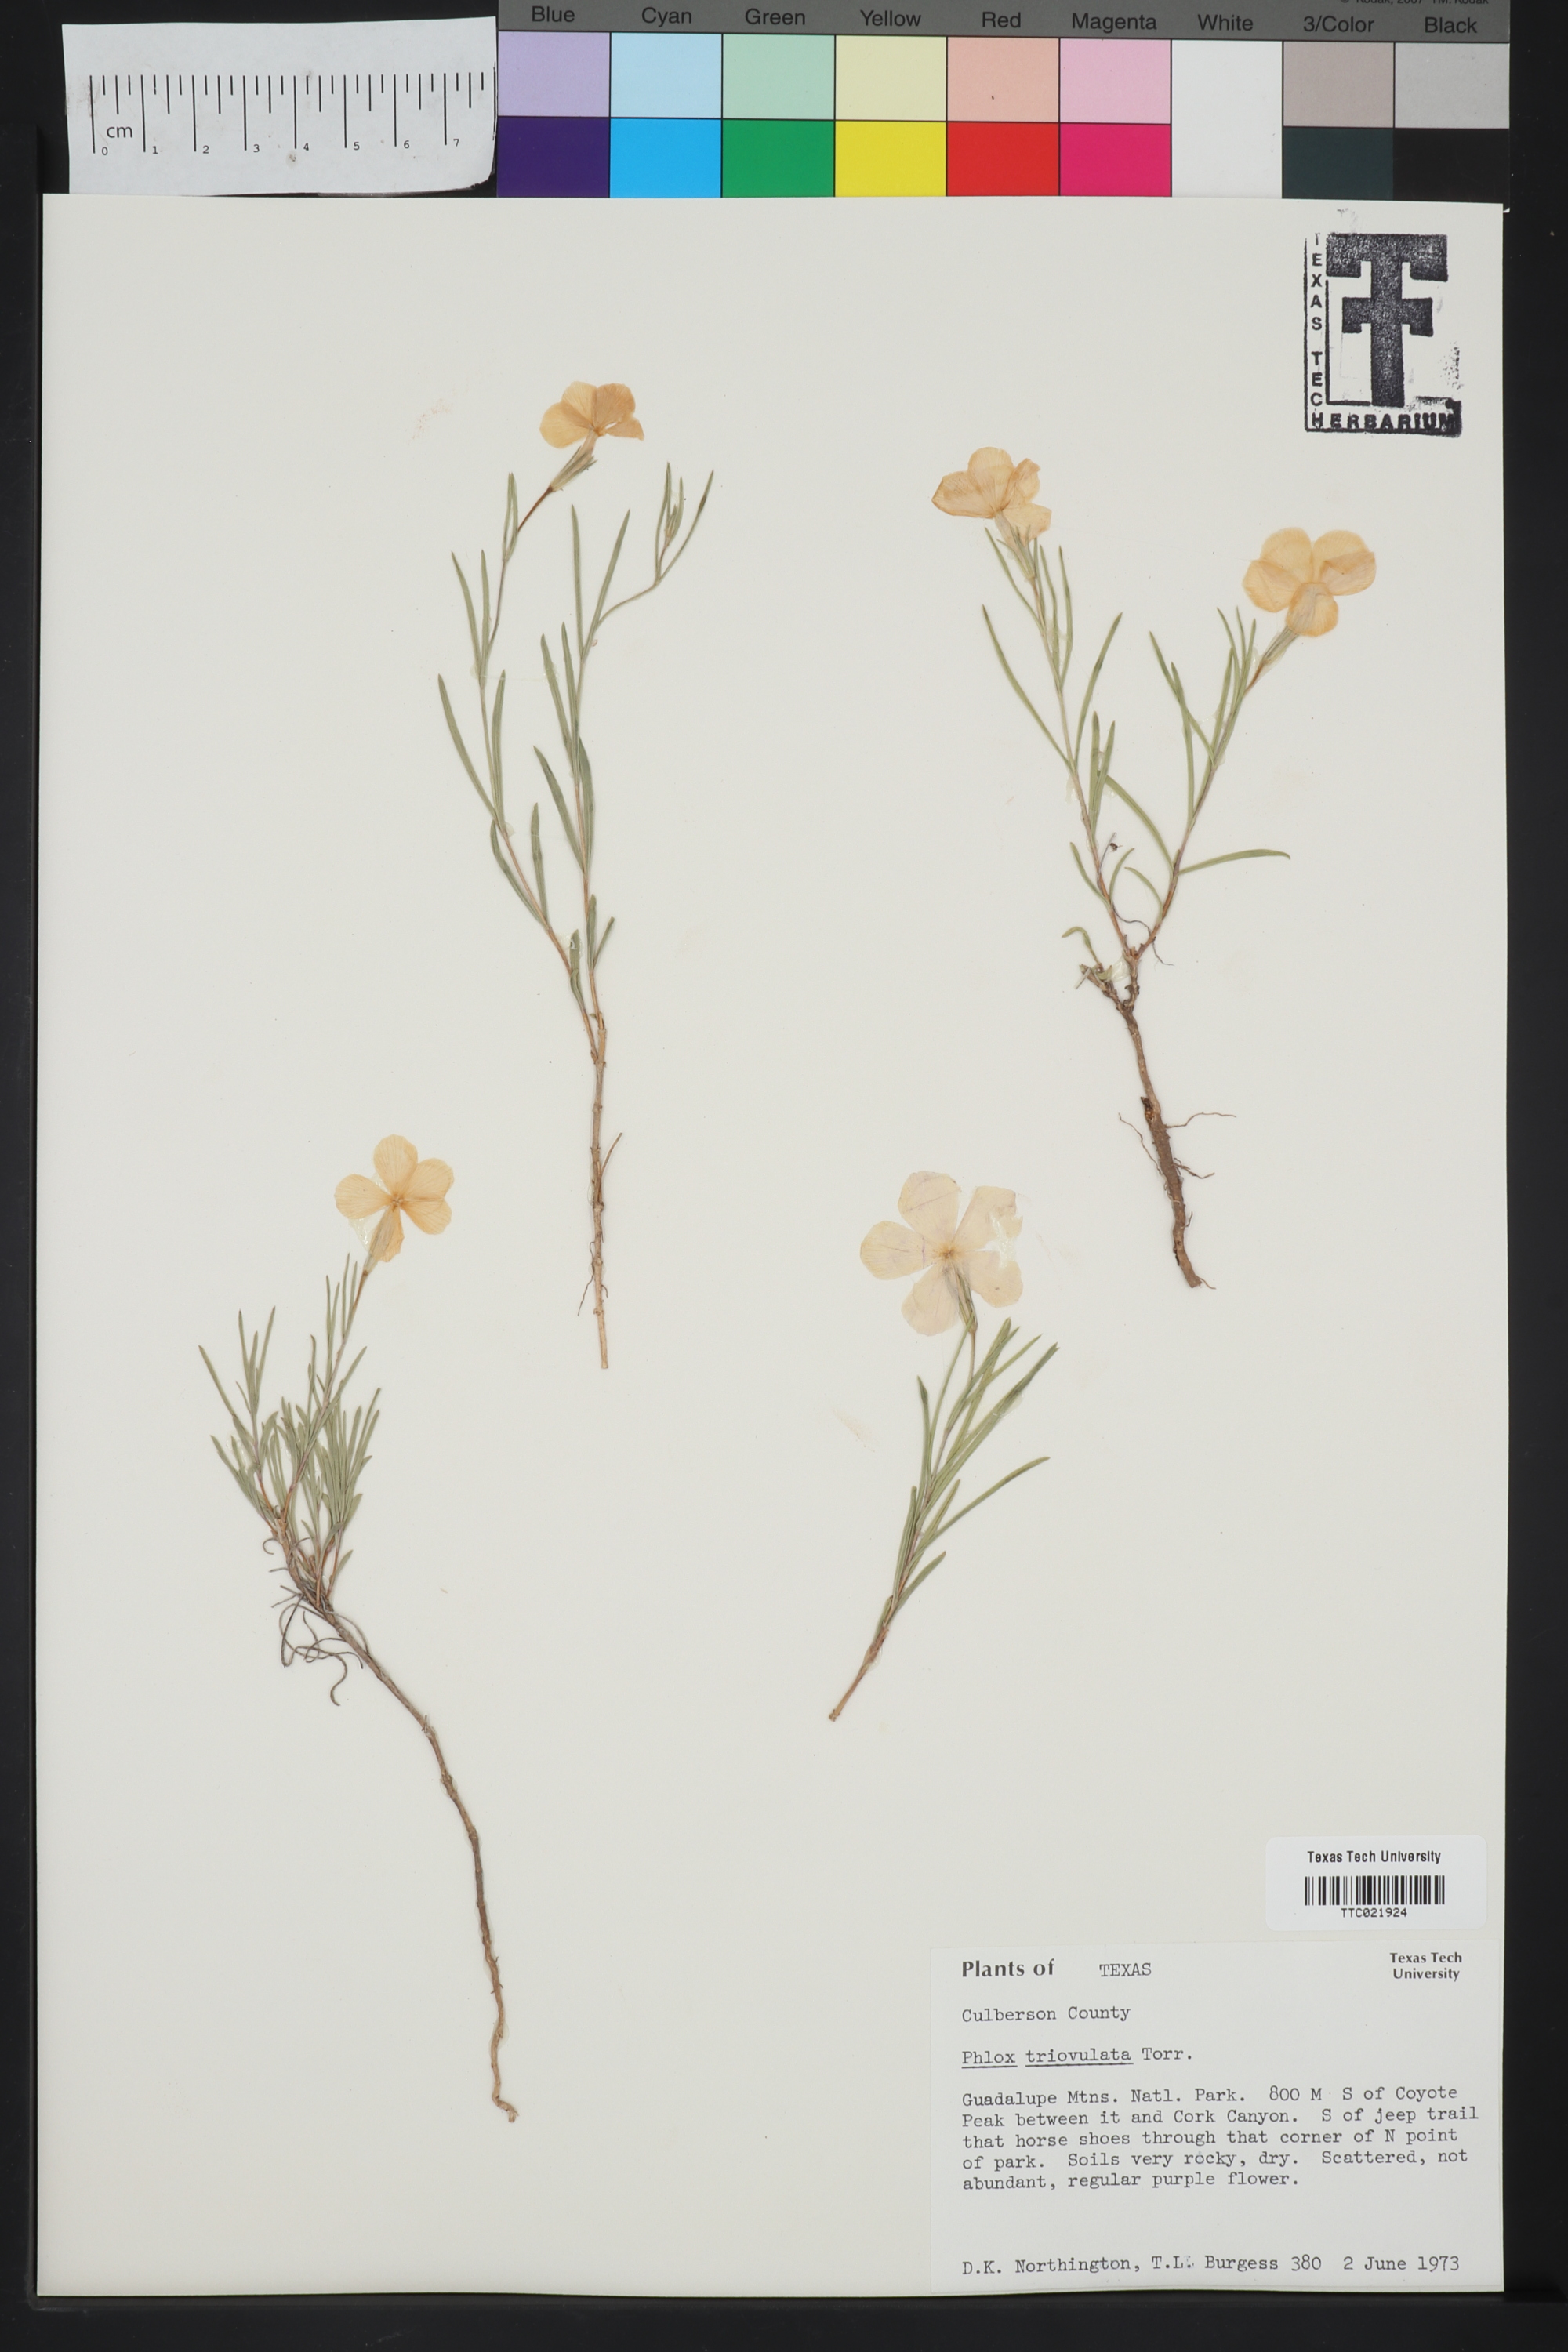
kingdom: Plantae
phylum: Tracheophyta
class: Magnoliopsida
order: Ericales
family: Polemoniaceae
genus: Phlox
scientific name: Phlox triovulata
